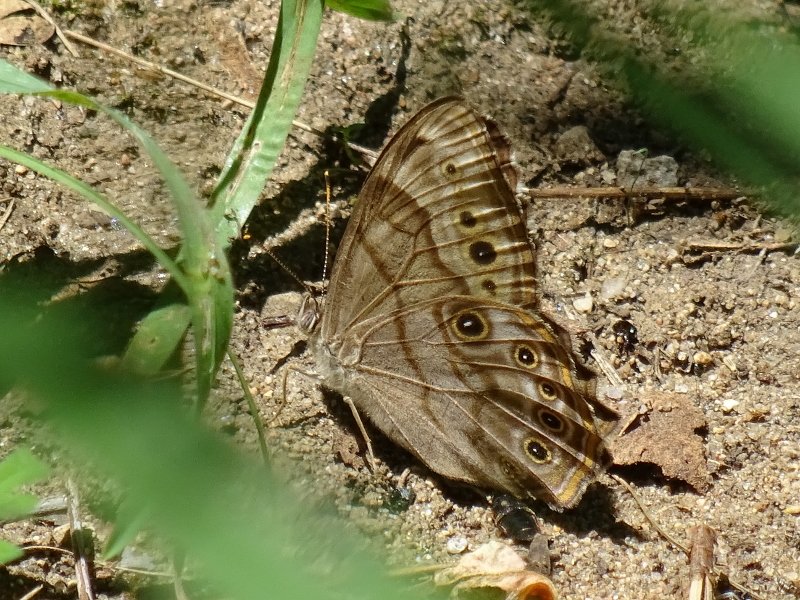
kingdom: Animalia
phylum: Arthropoda
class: Insecta
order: Lepidoptera
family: Nymphalidae
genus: Lethe
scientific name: Lethe anthedon
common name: Northern Pearly-Eye
